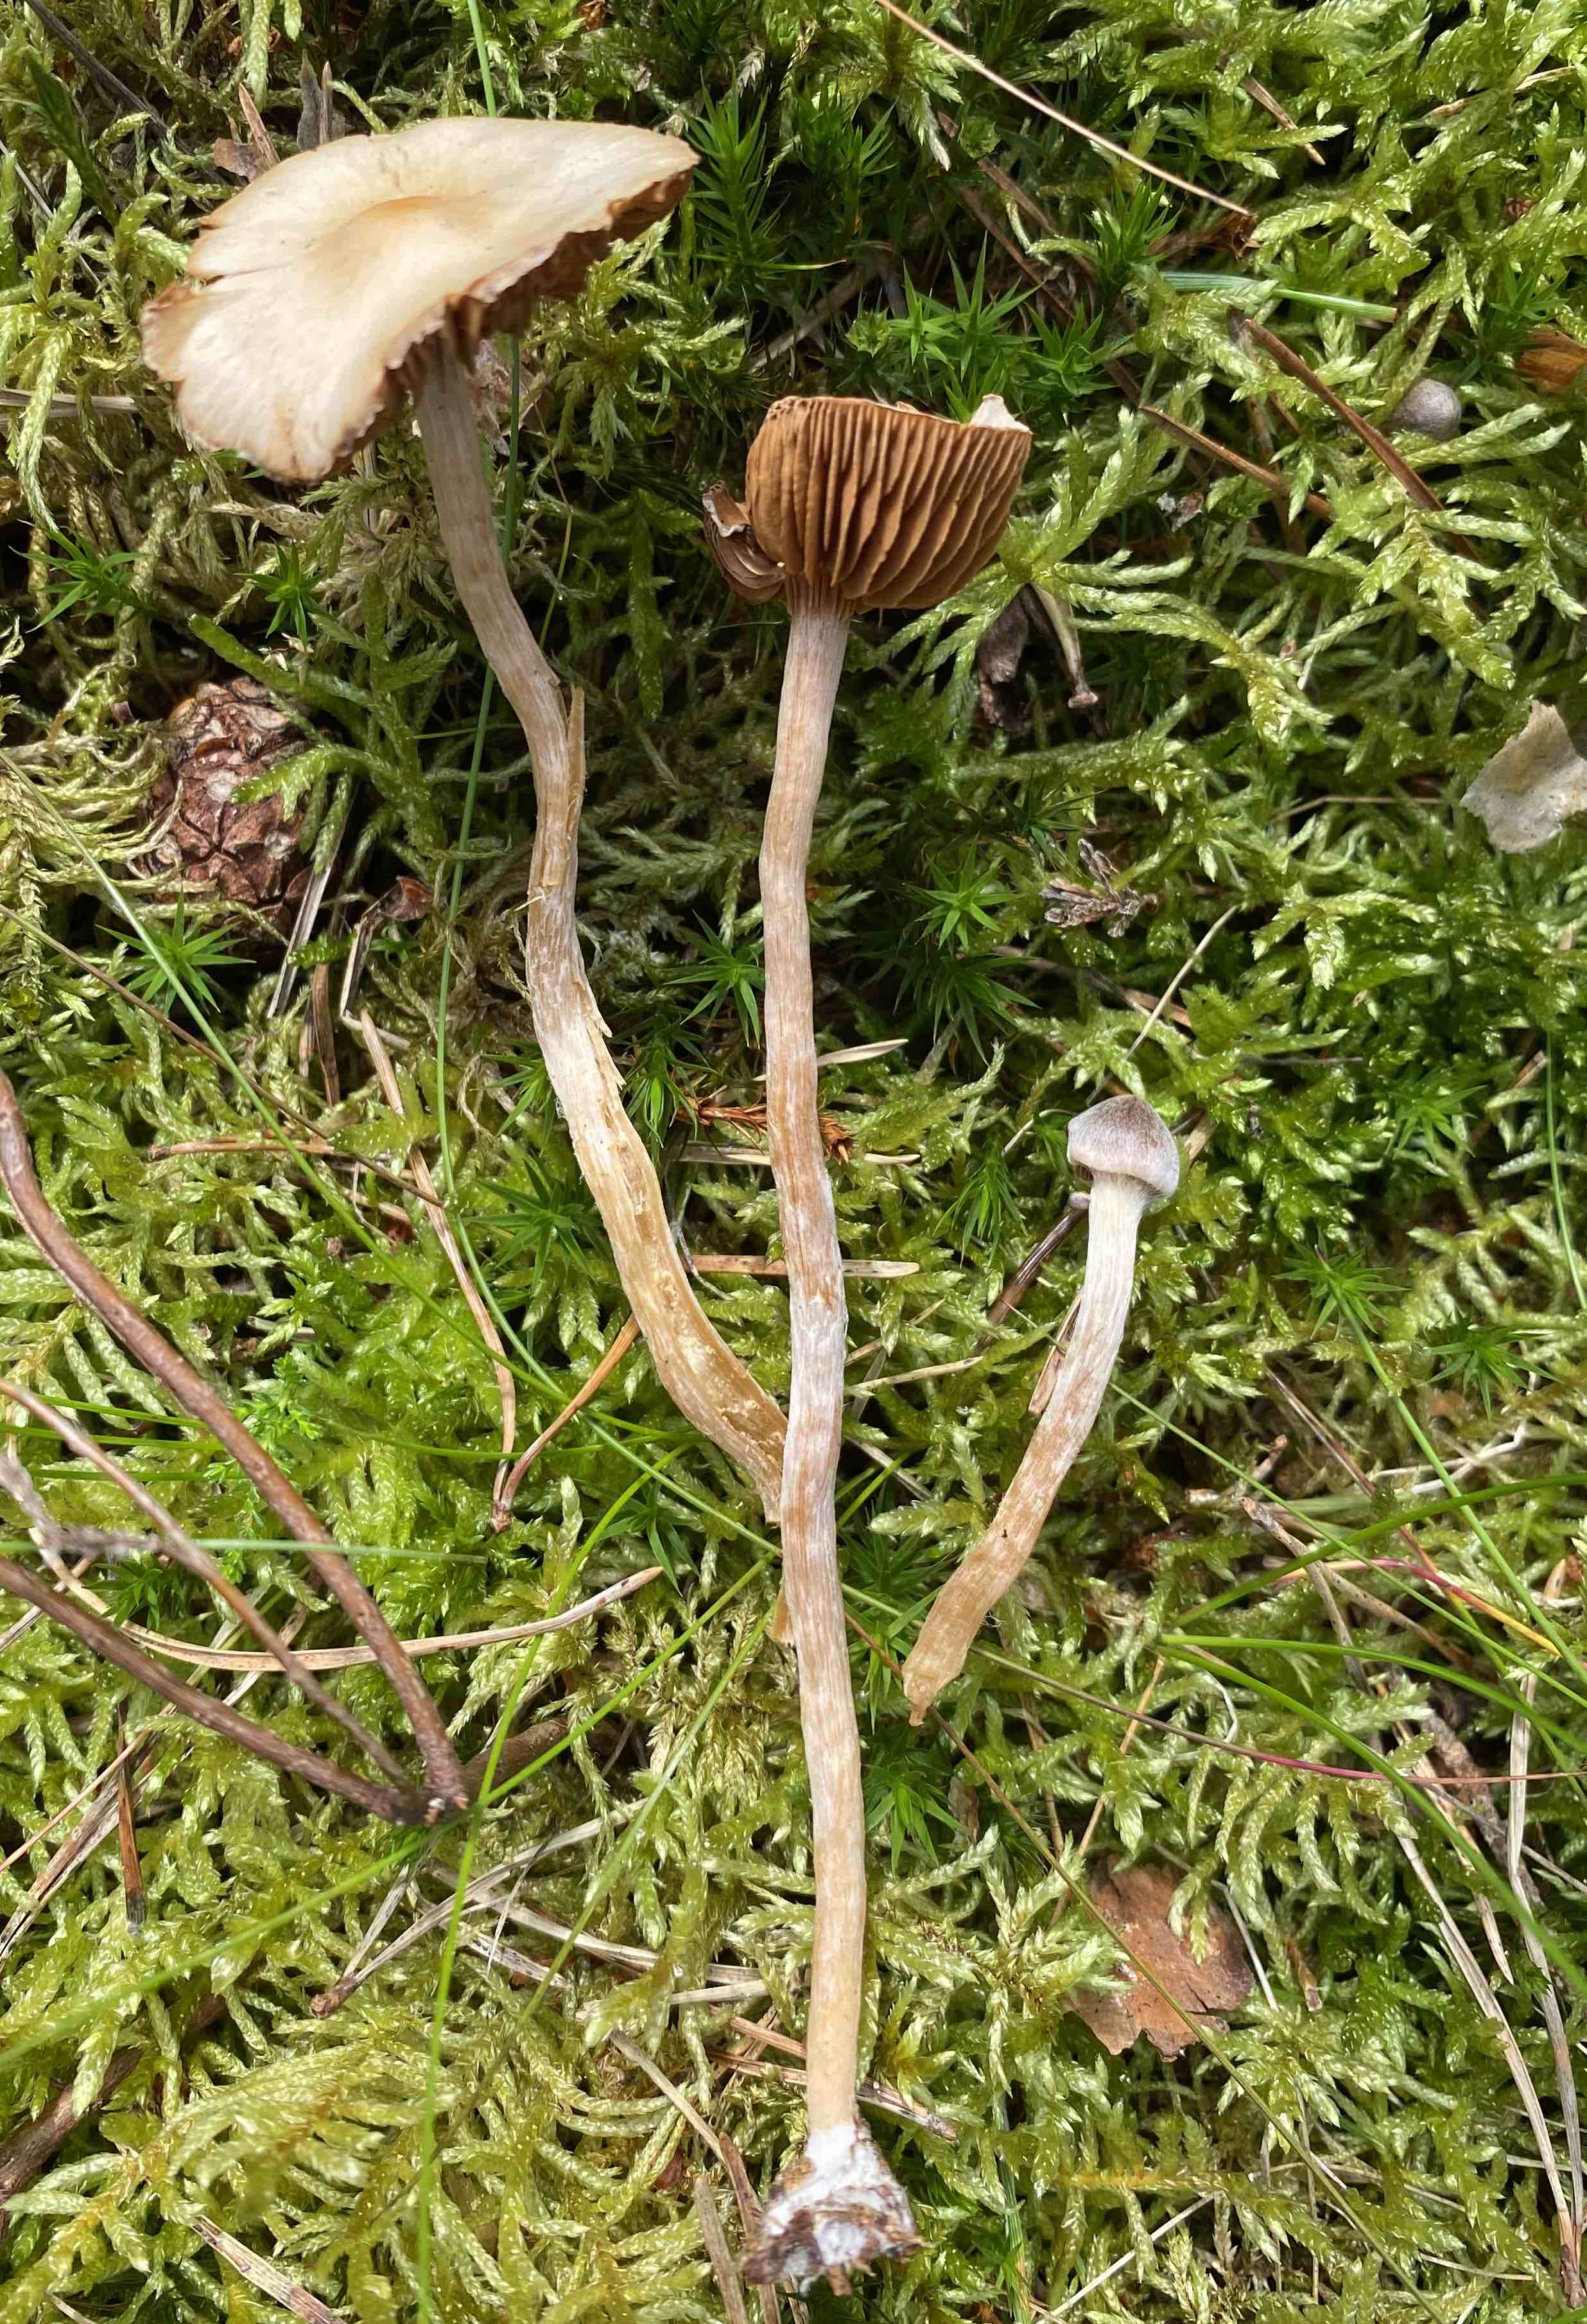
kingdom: Fungi
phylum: Basidiomycota
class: Agaricomycetes
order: Agaricales
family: Cortinariaceae
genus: Cortinarius
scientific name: Cortinarius
